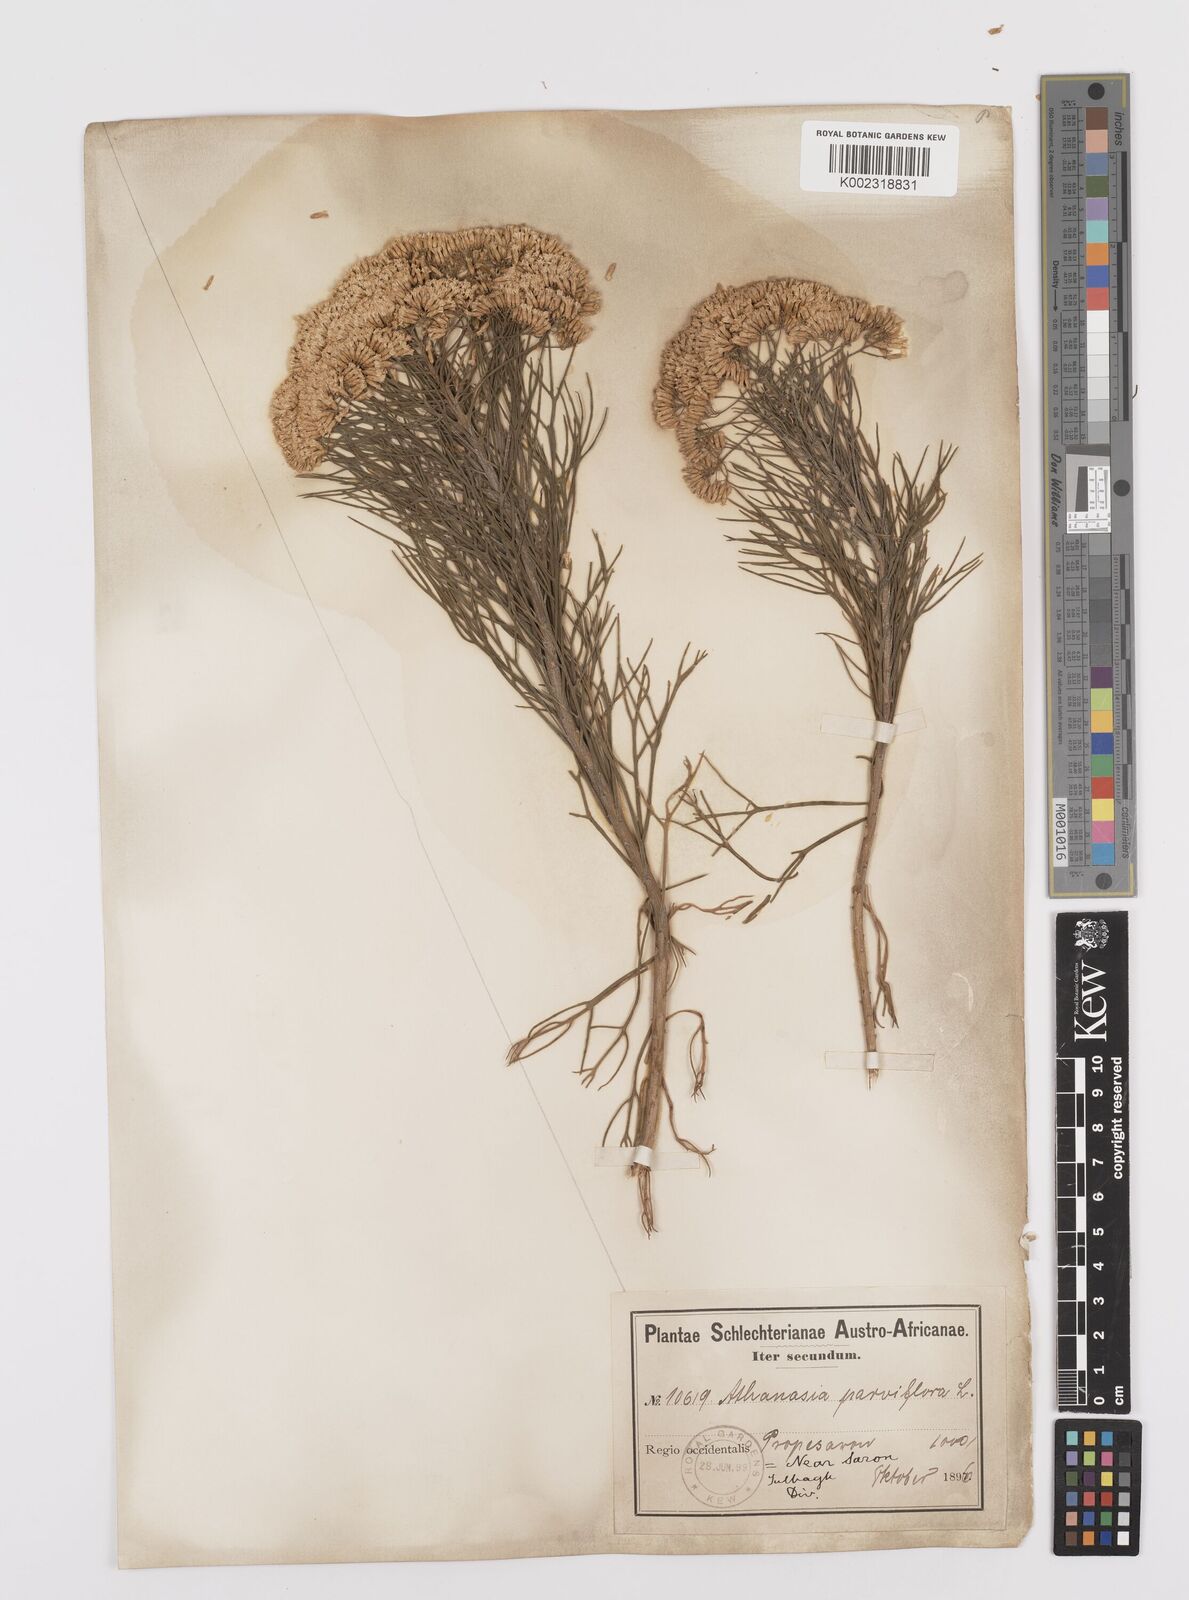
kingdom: Plantae
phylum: Tracheophyta
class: Magnoliopsida
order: Asterales
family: Asteraceae
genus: Hymenolepis
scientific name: Hymenolepis crithmifolia
